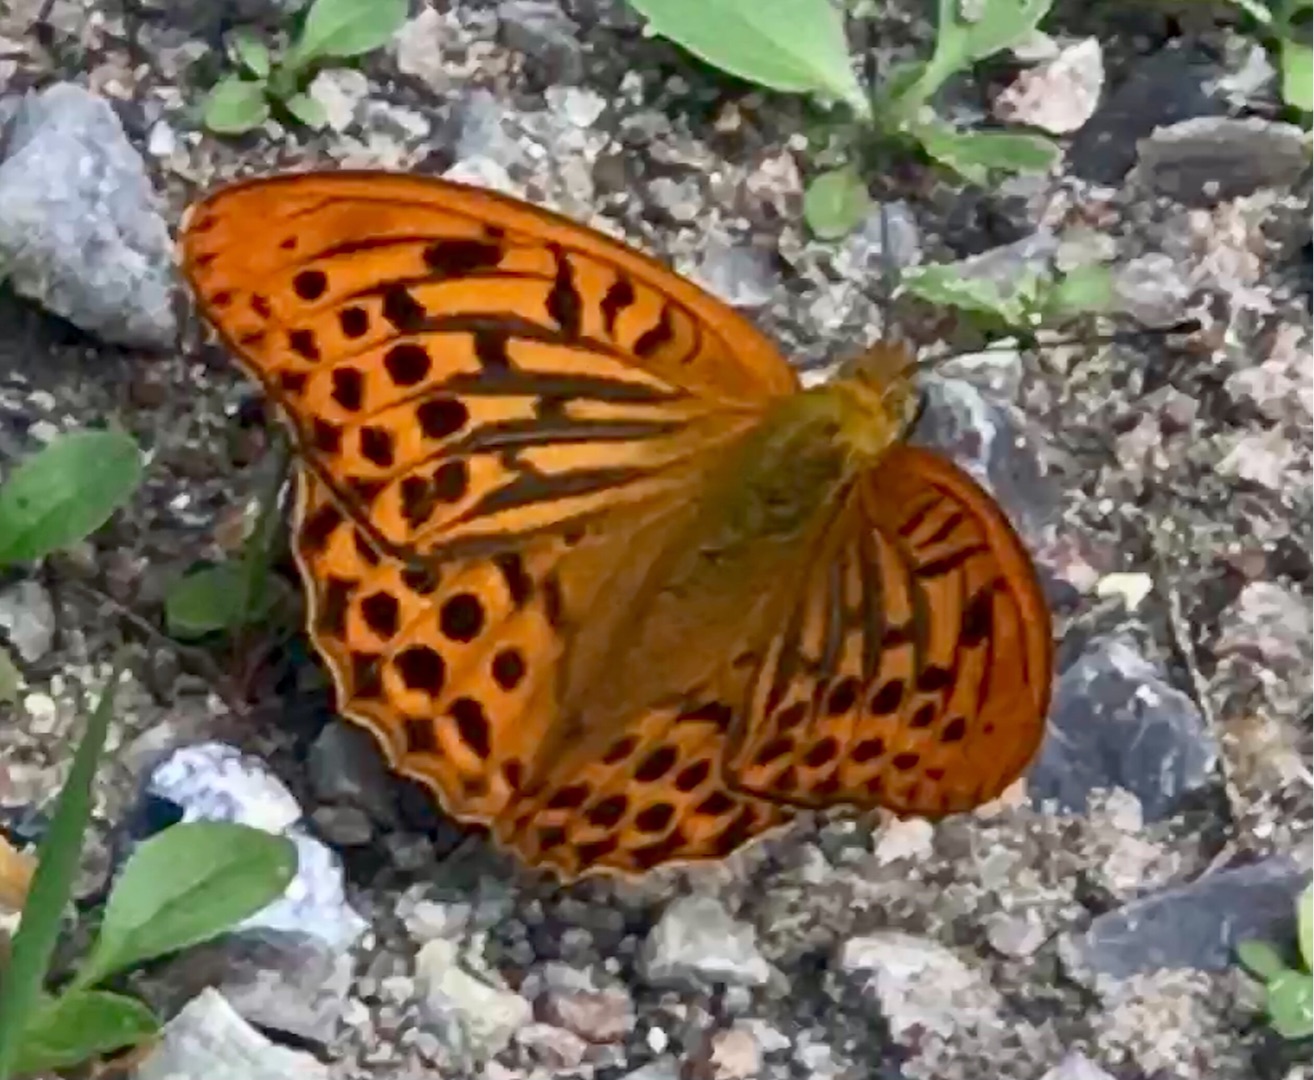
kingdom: Animalia
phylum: Arthropoda
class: Insecta
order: Lepidoptera
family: Nymphalidae
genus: Argynnis
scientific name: Argynnis paphia
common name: Kejserkåbe
